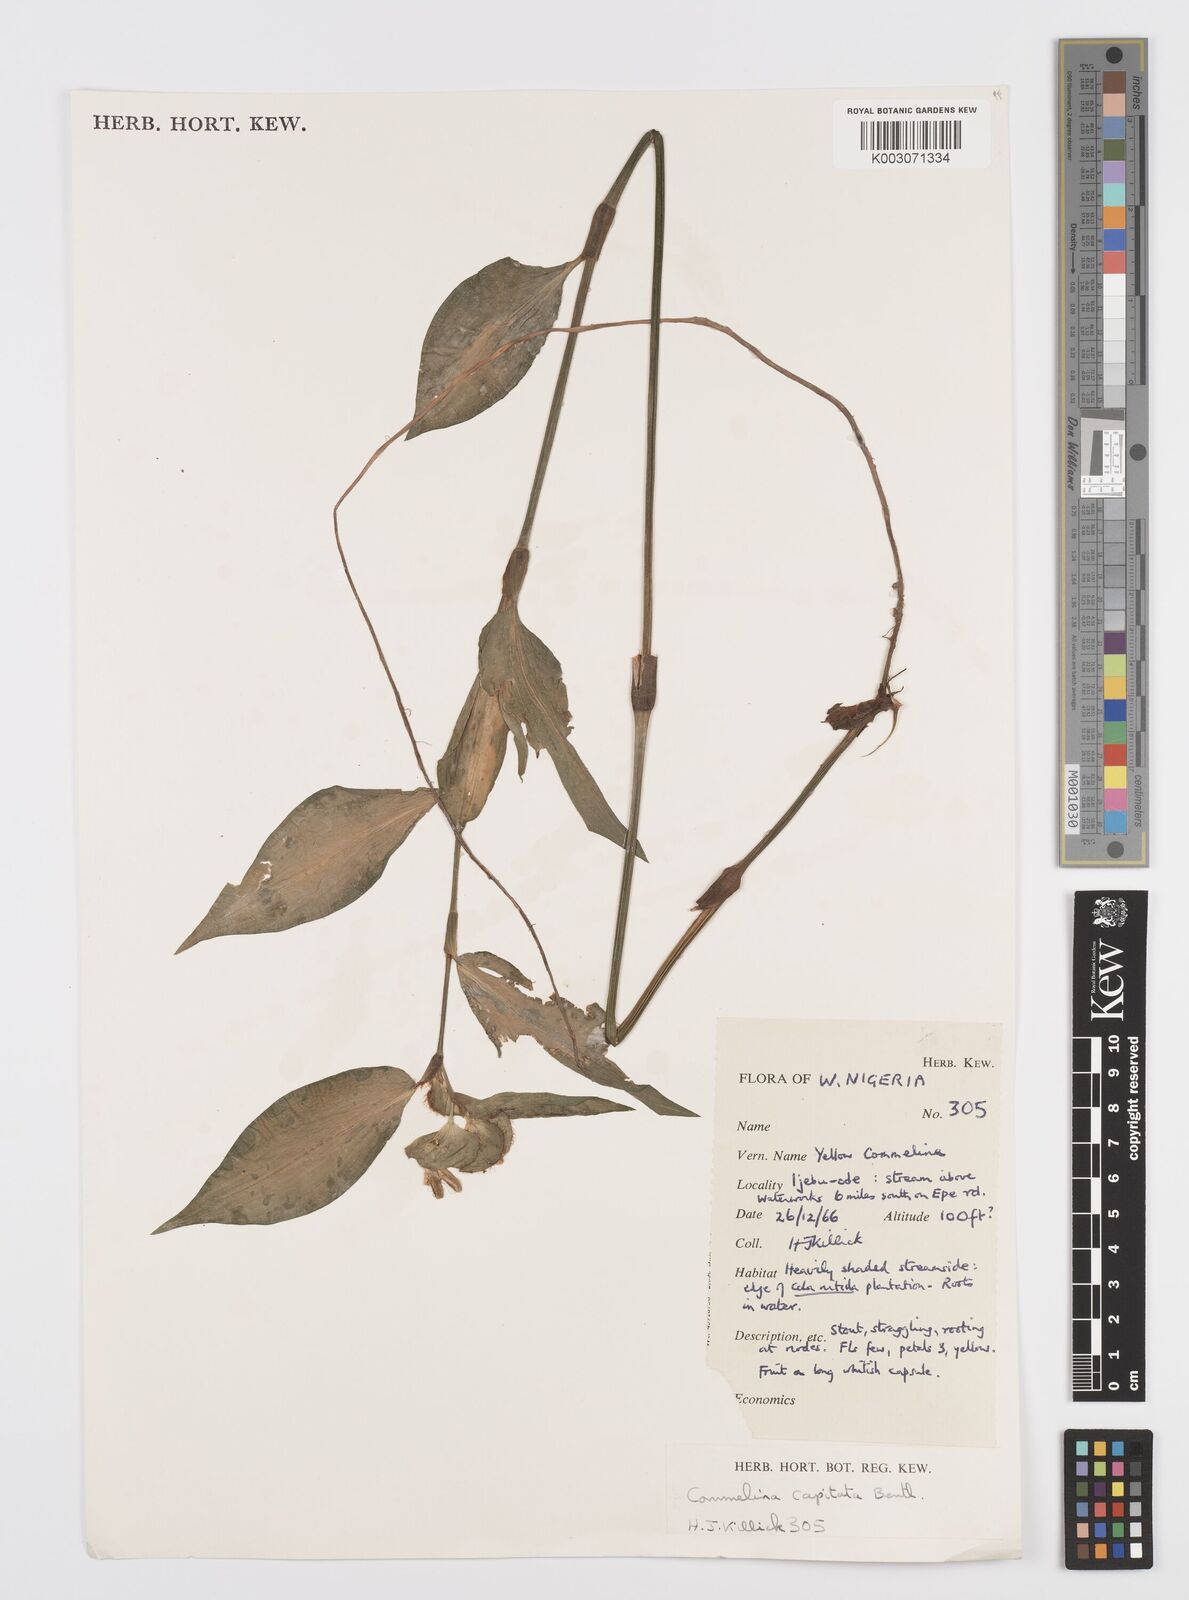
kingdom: Plantae
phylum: Tracheophyta
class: Liliopsida
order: Commelinales
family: Commelinaceae
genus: Commelina
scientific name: Commelina capitata
